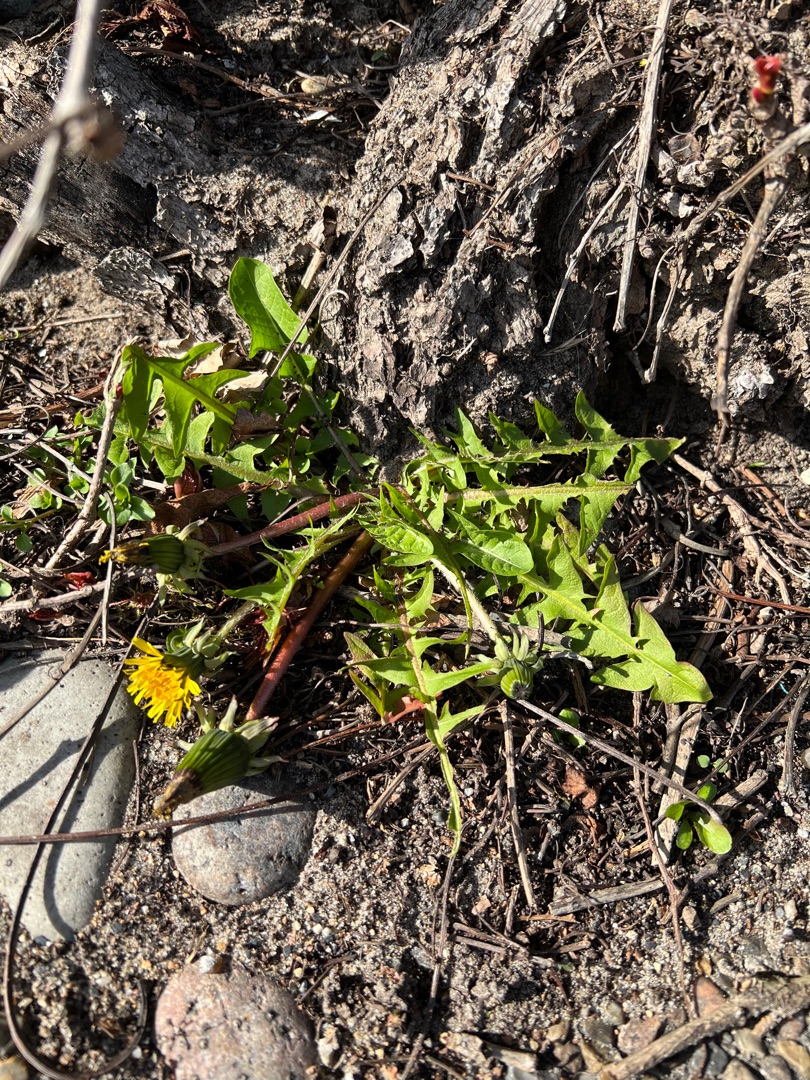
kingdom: Plantae
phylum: Tracheophyta
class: Magnoliopsida
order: Asterales
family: Asteraceae
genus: Taraxacum
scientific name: Taraxacum
